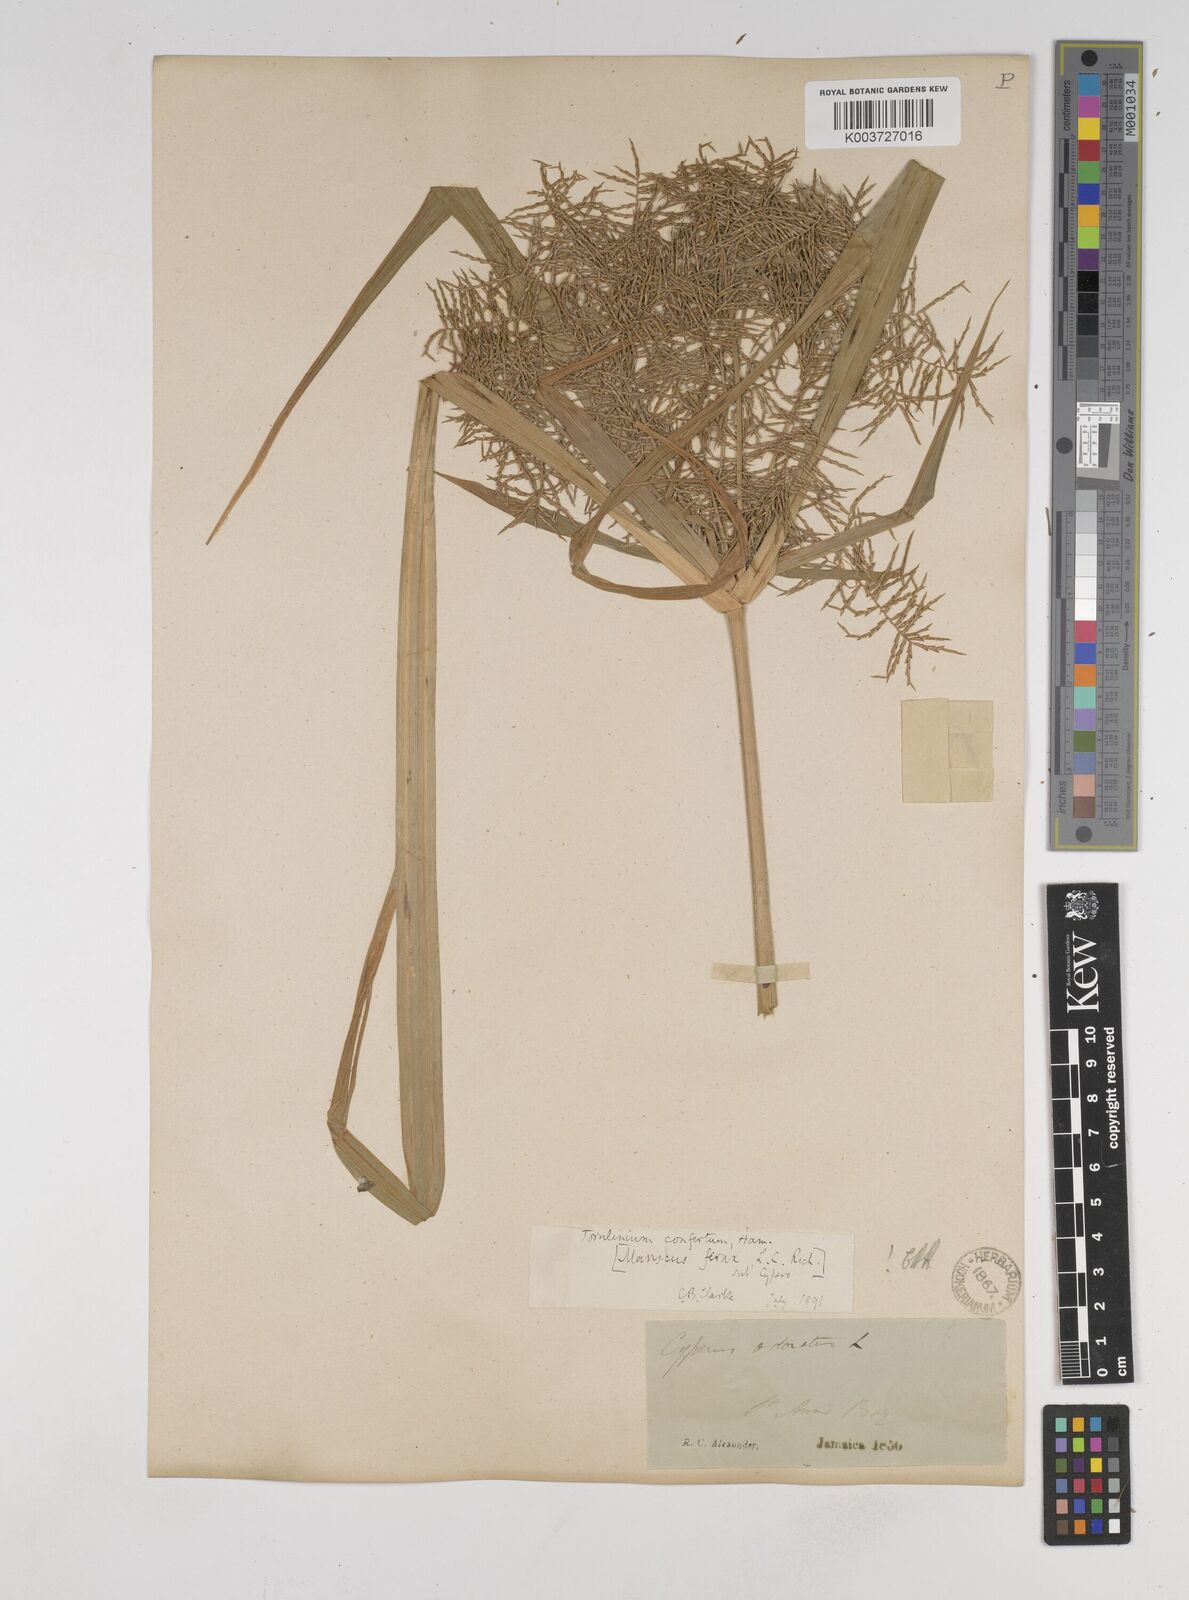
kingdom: Plantae
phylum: Tracheophyta
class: Liliopsida
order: Poales
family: Cyperaceae
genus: Cyperus
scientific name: Cyperus odoratus
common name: Fragrant flatsedge
